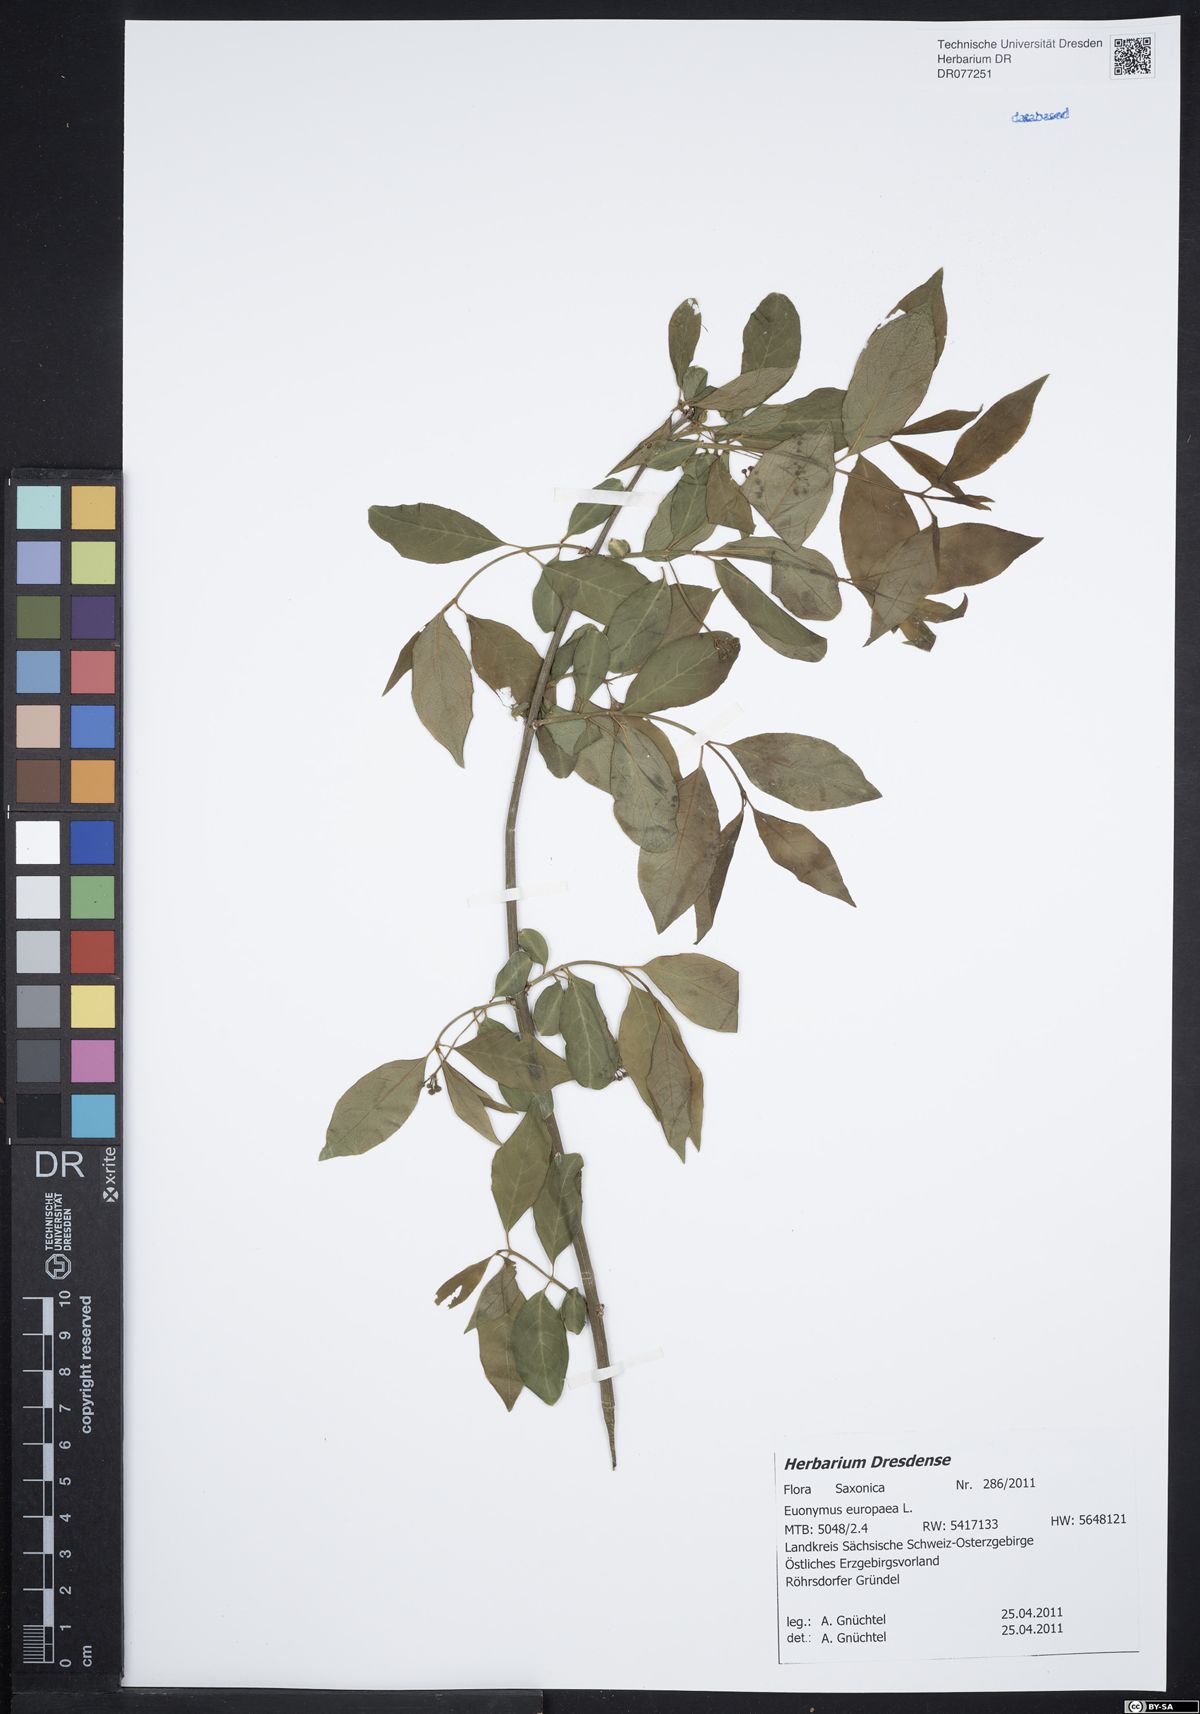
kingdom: Plantae
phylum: Tracheophyta
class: Magnoliopsida
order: Celastrales
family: Celastraceae
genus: Euonymus
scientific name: Euonymus europaeus
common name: Spindle
